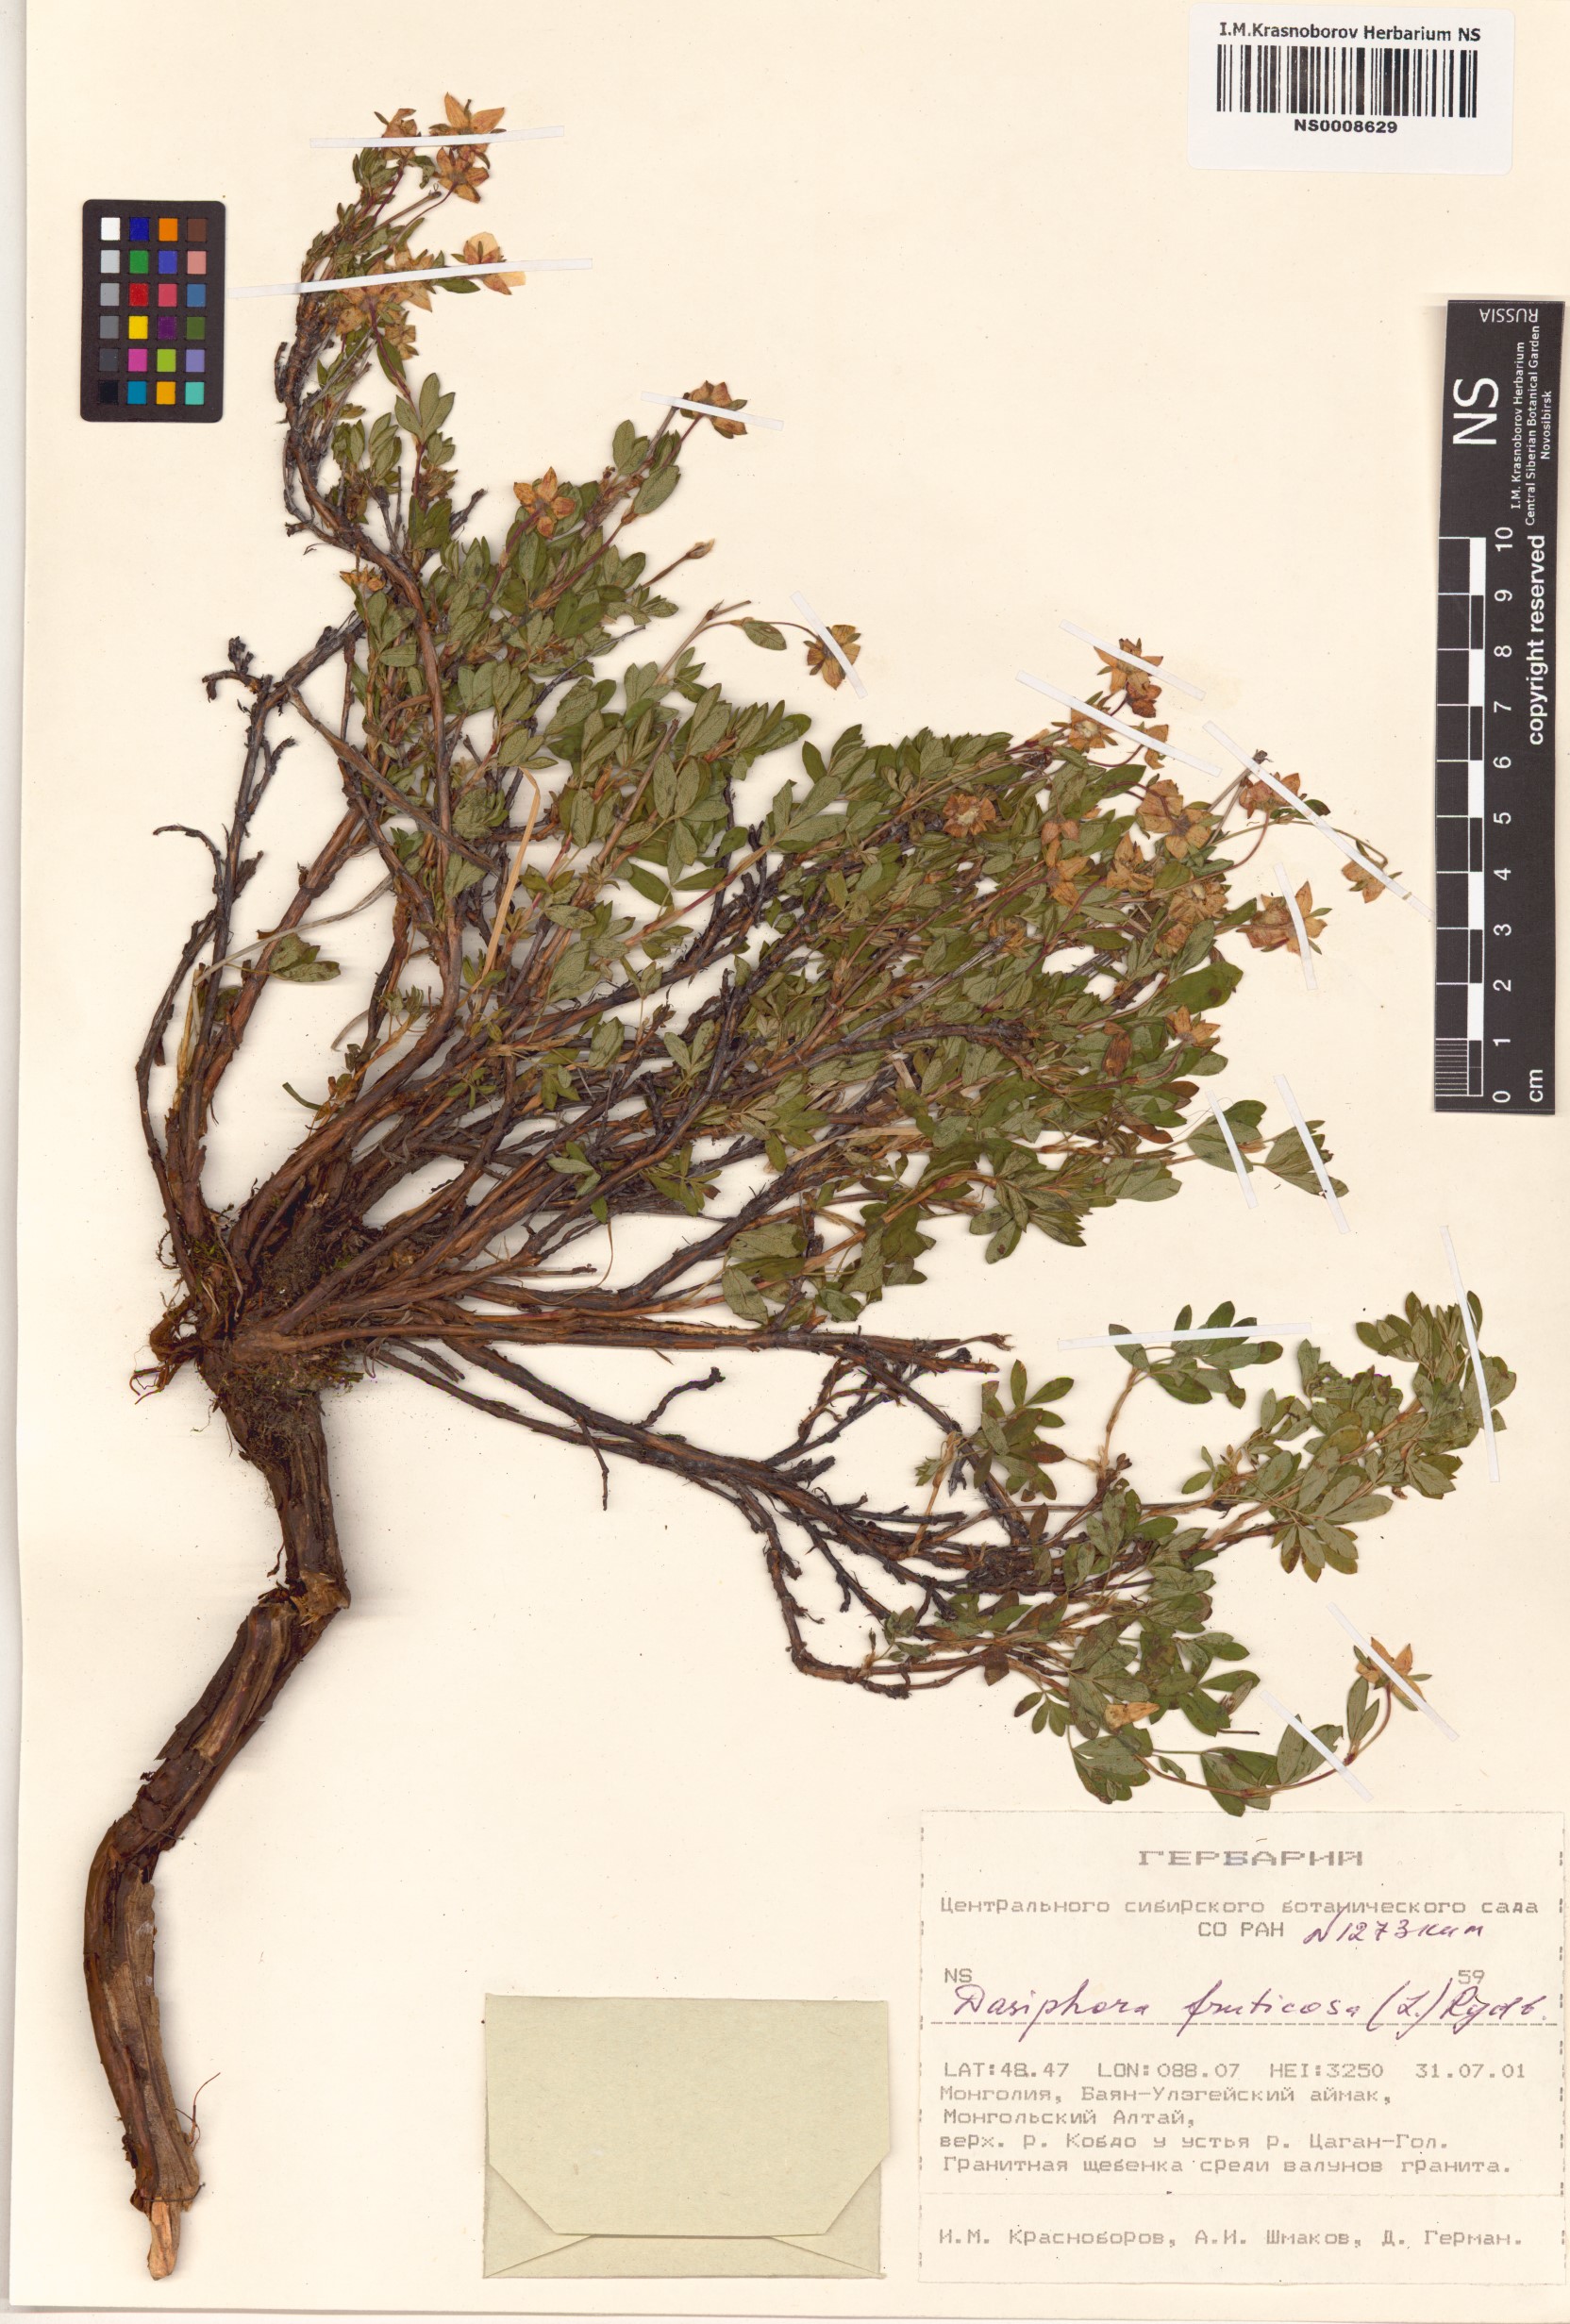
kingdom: Plantae
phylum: Tracheophyta
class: Magnoliopsida
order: Rosales
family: Rosaceae
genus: Dasiphora
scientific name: Dasiphora fruticosa
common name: Shrubby cinquefoil
